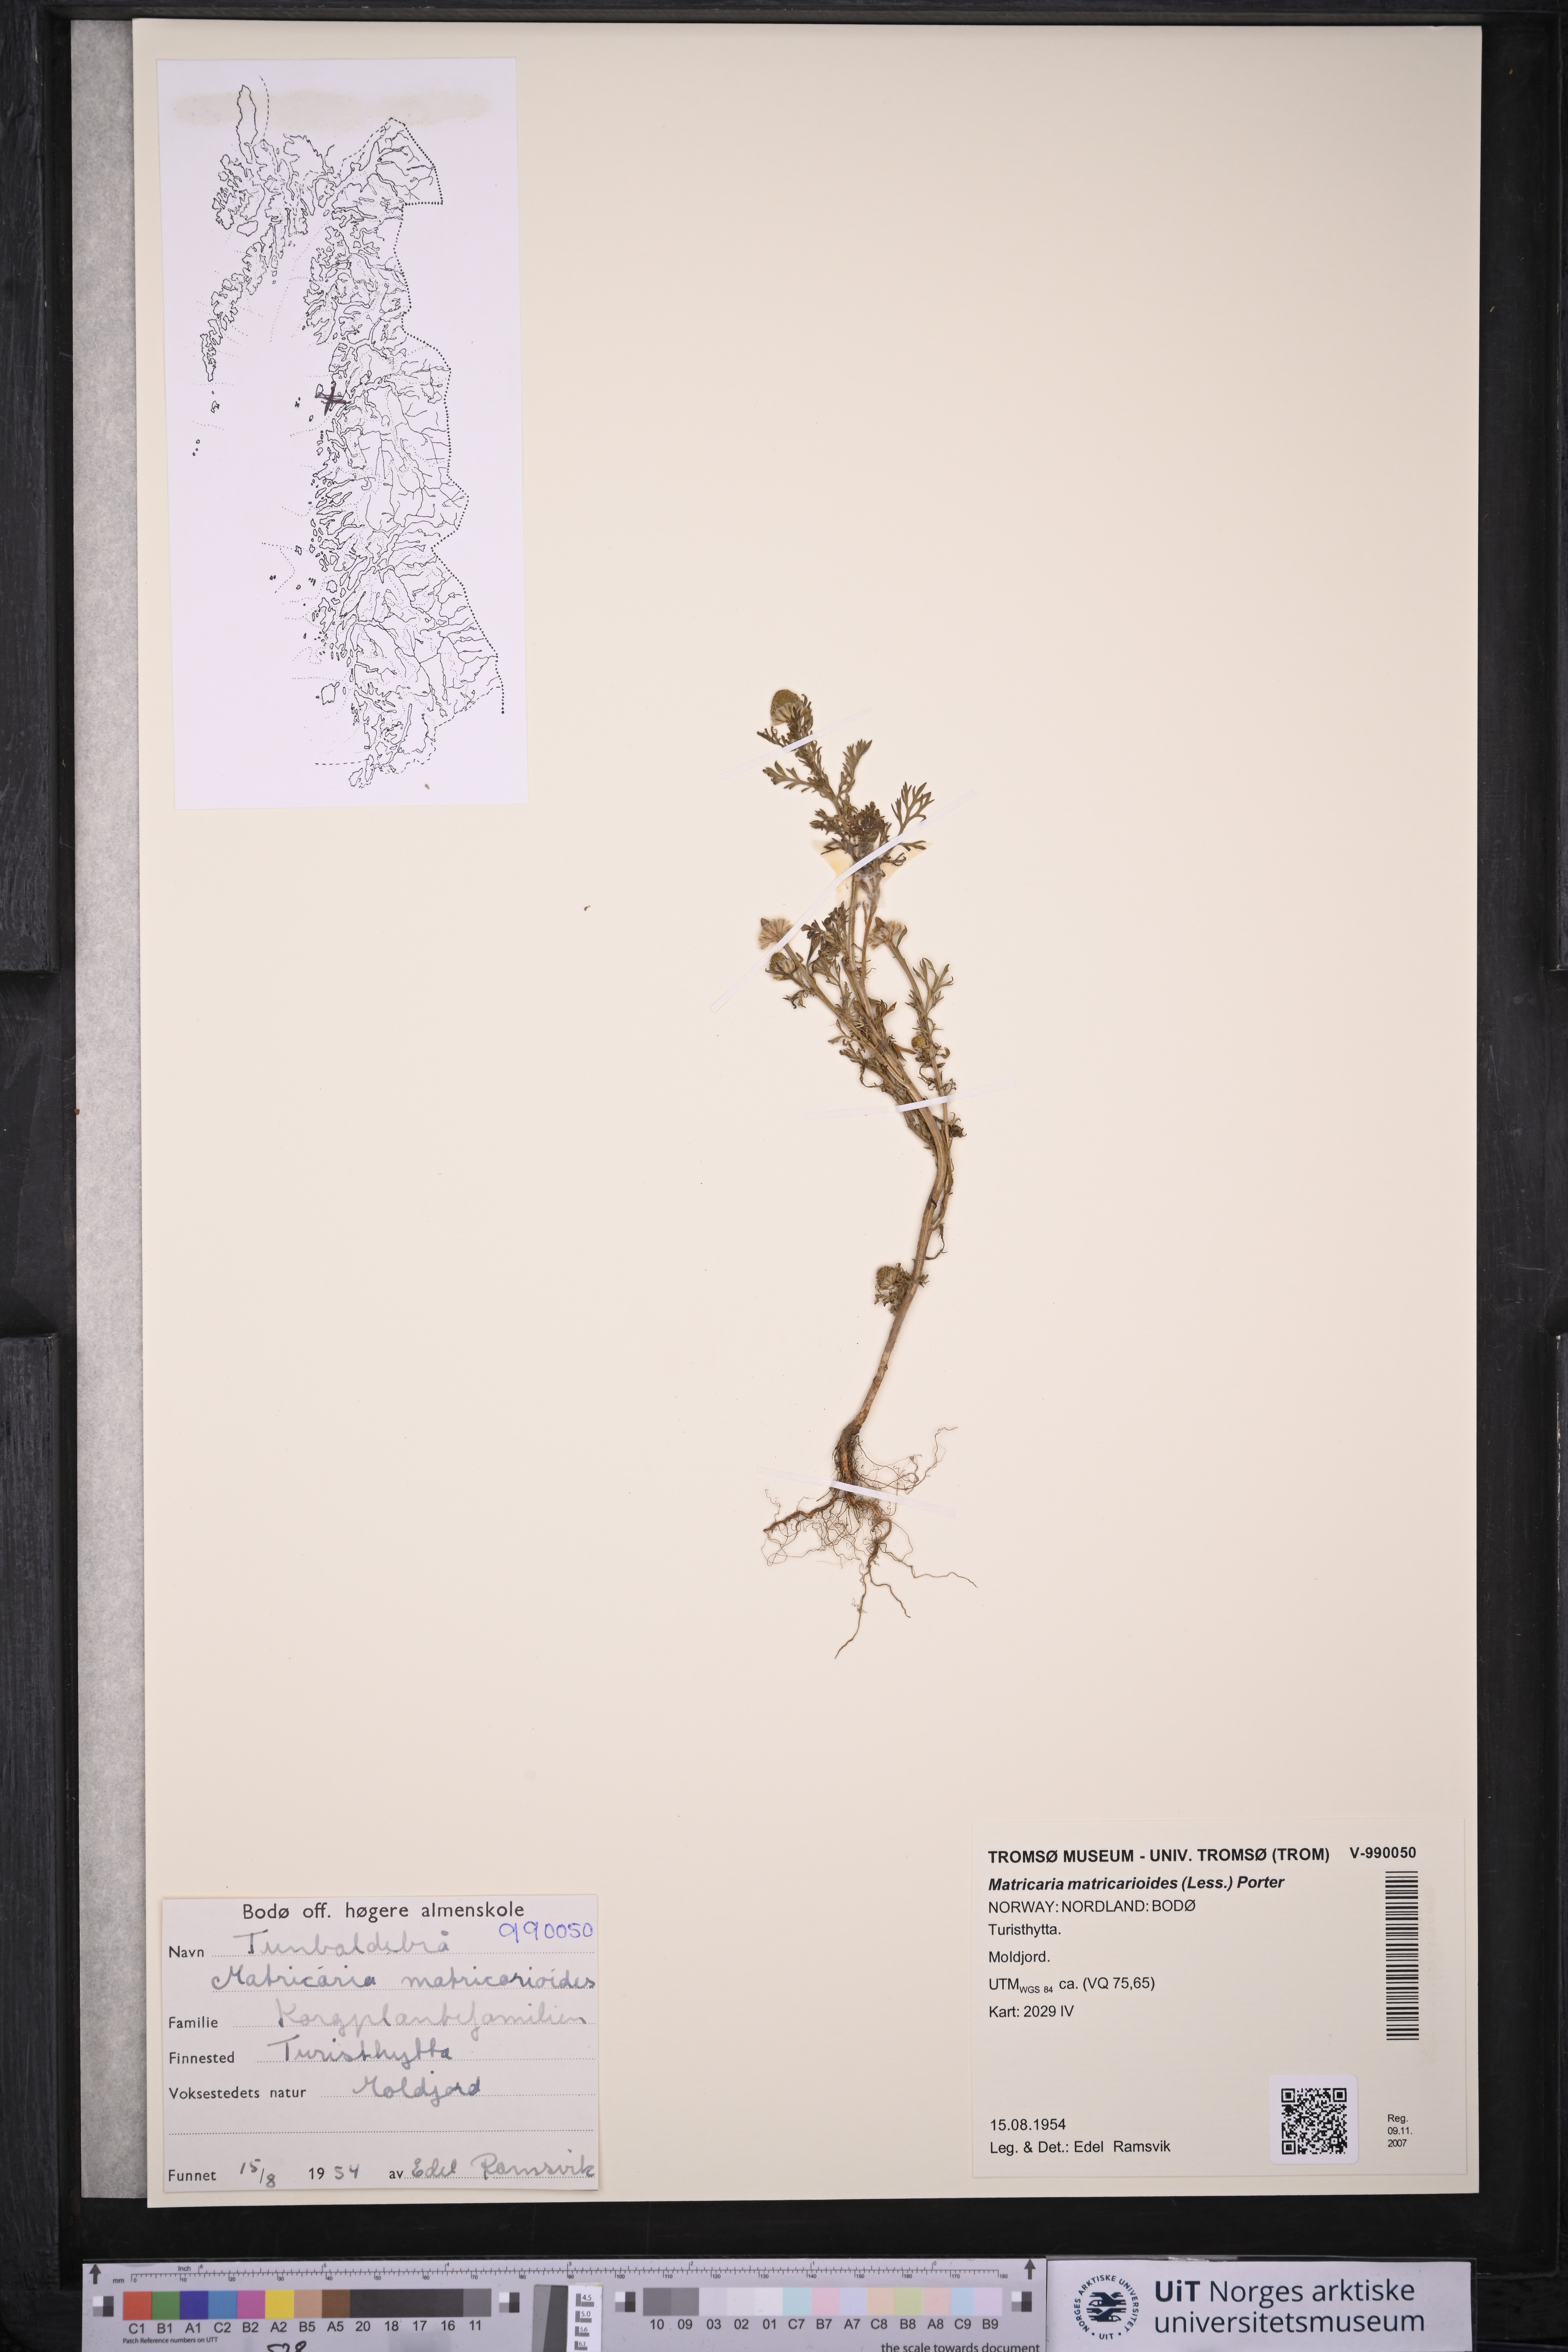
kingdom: Plantae
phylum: Tracheophyta
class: Magnoliopsida
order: Asterales
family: Asteraceae
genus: Matricaria
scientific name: Matricaria discoidea
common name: Disc mayweed
